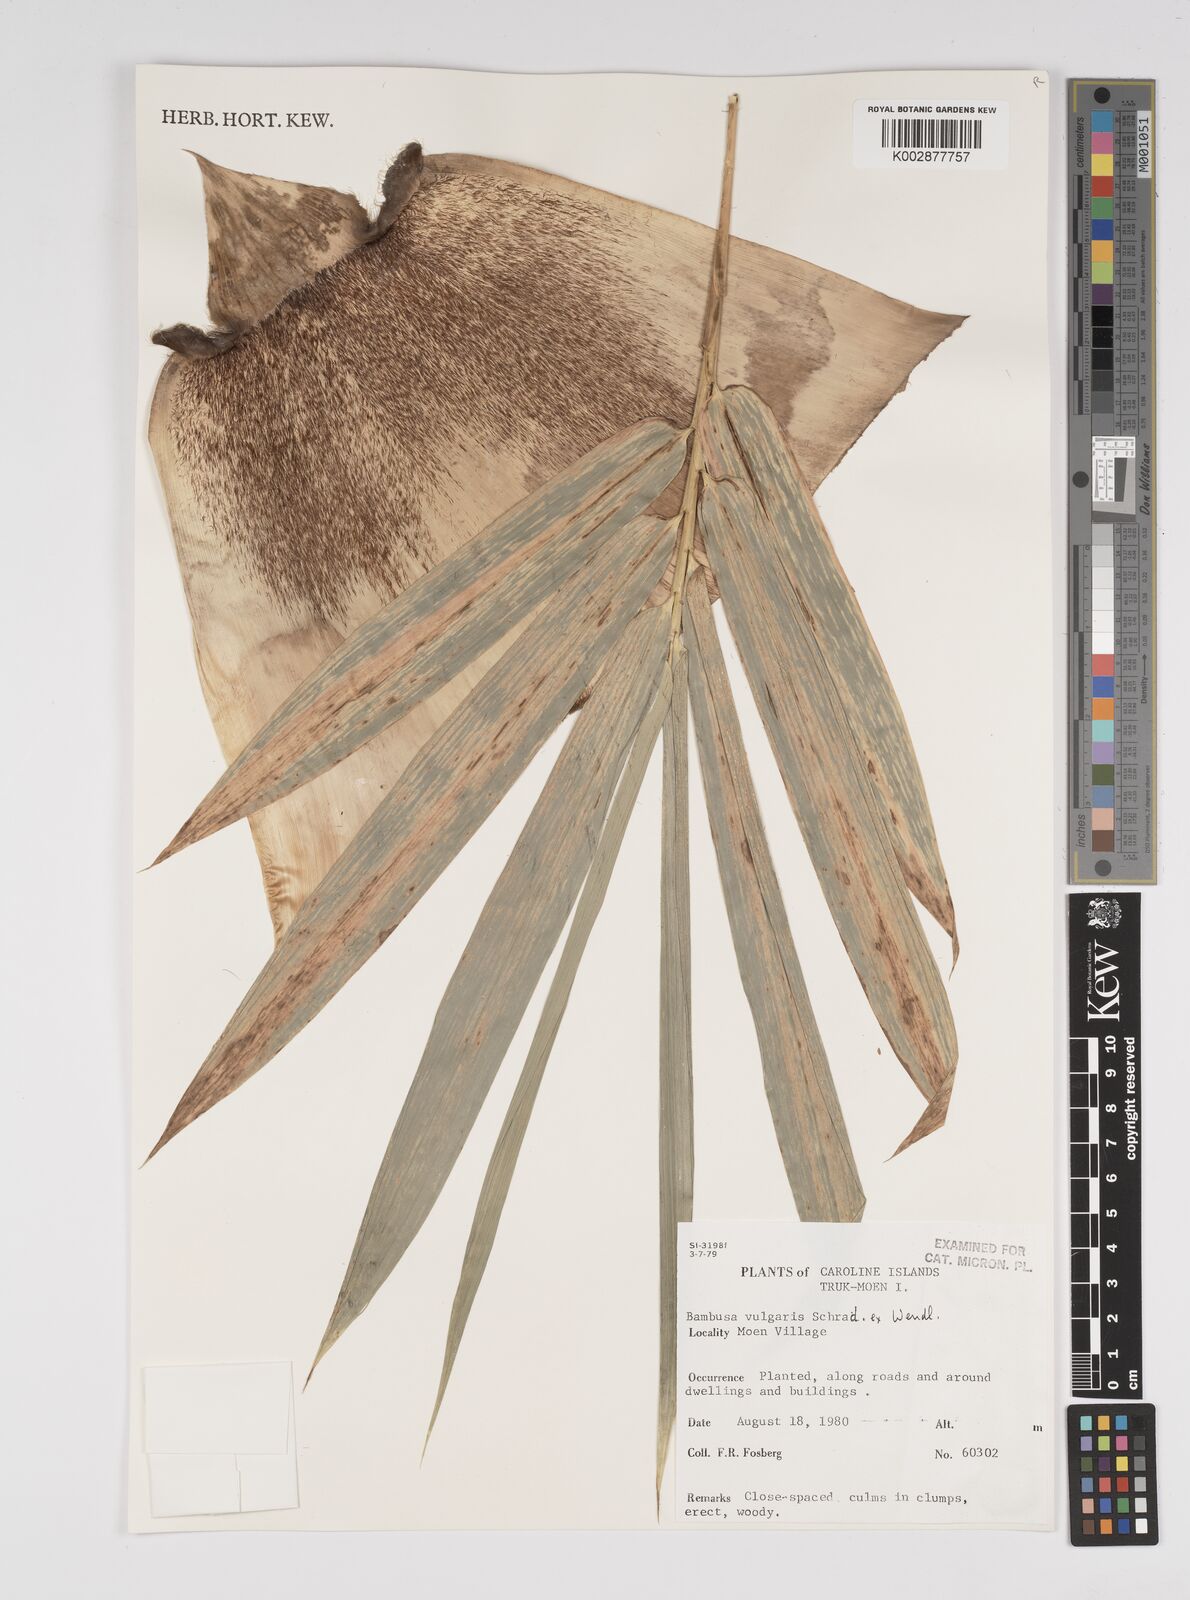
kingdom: Plantae
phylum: Tracheophyta
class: Liliopsida
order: Poales
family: Poaceae
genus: Bambusa
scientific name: Bambusa
